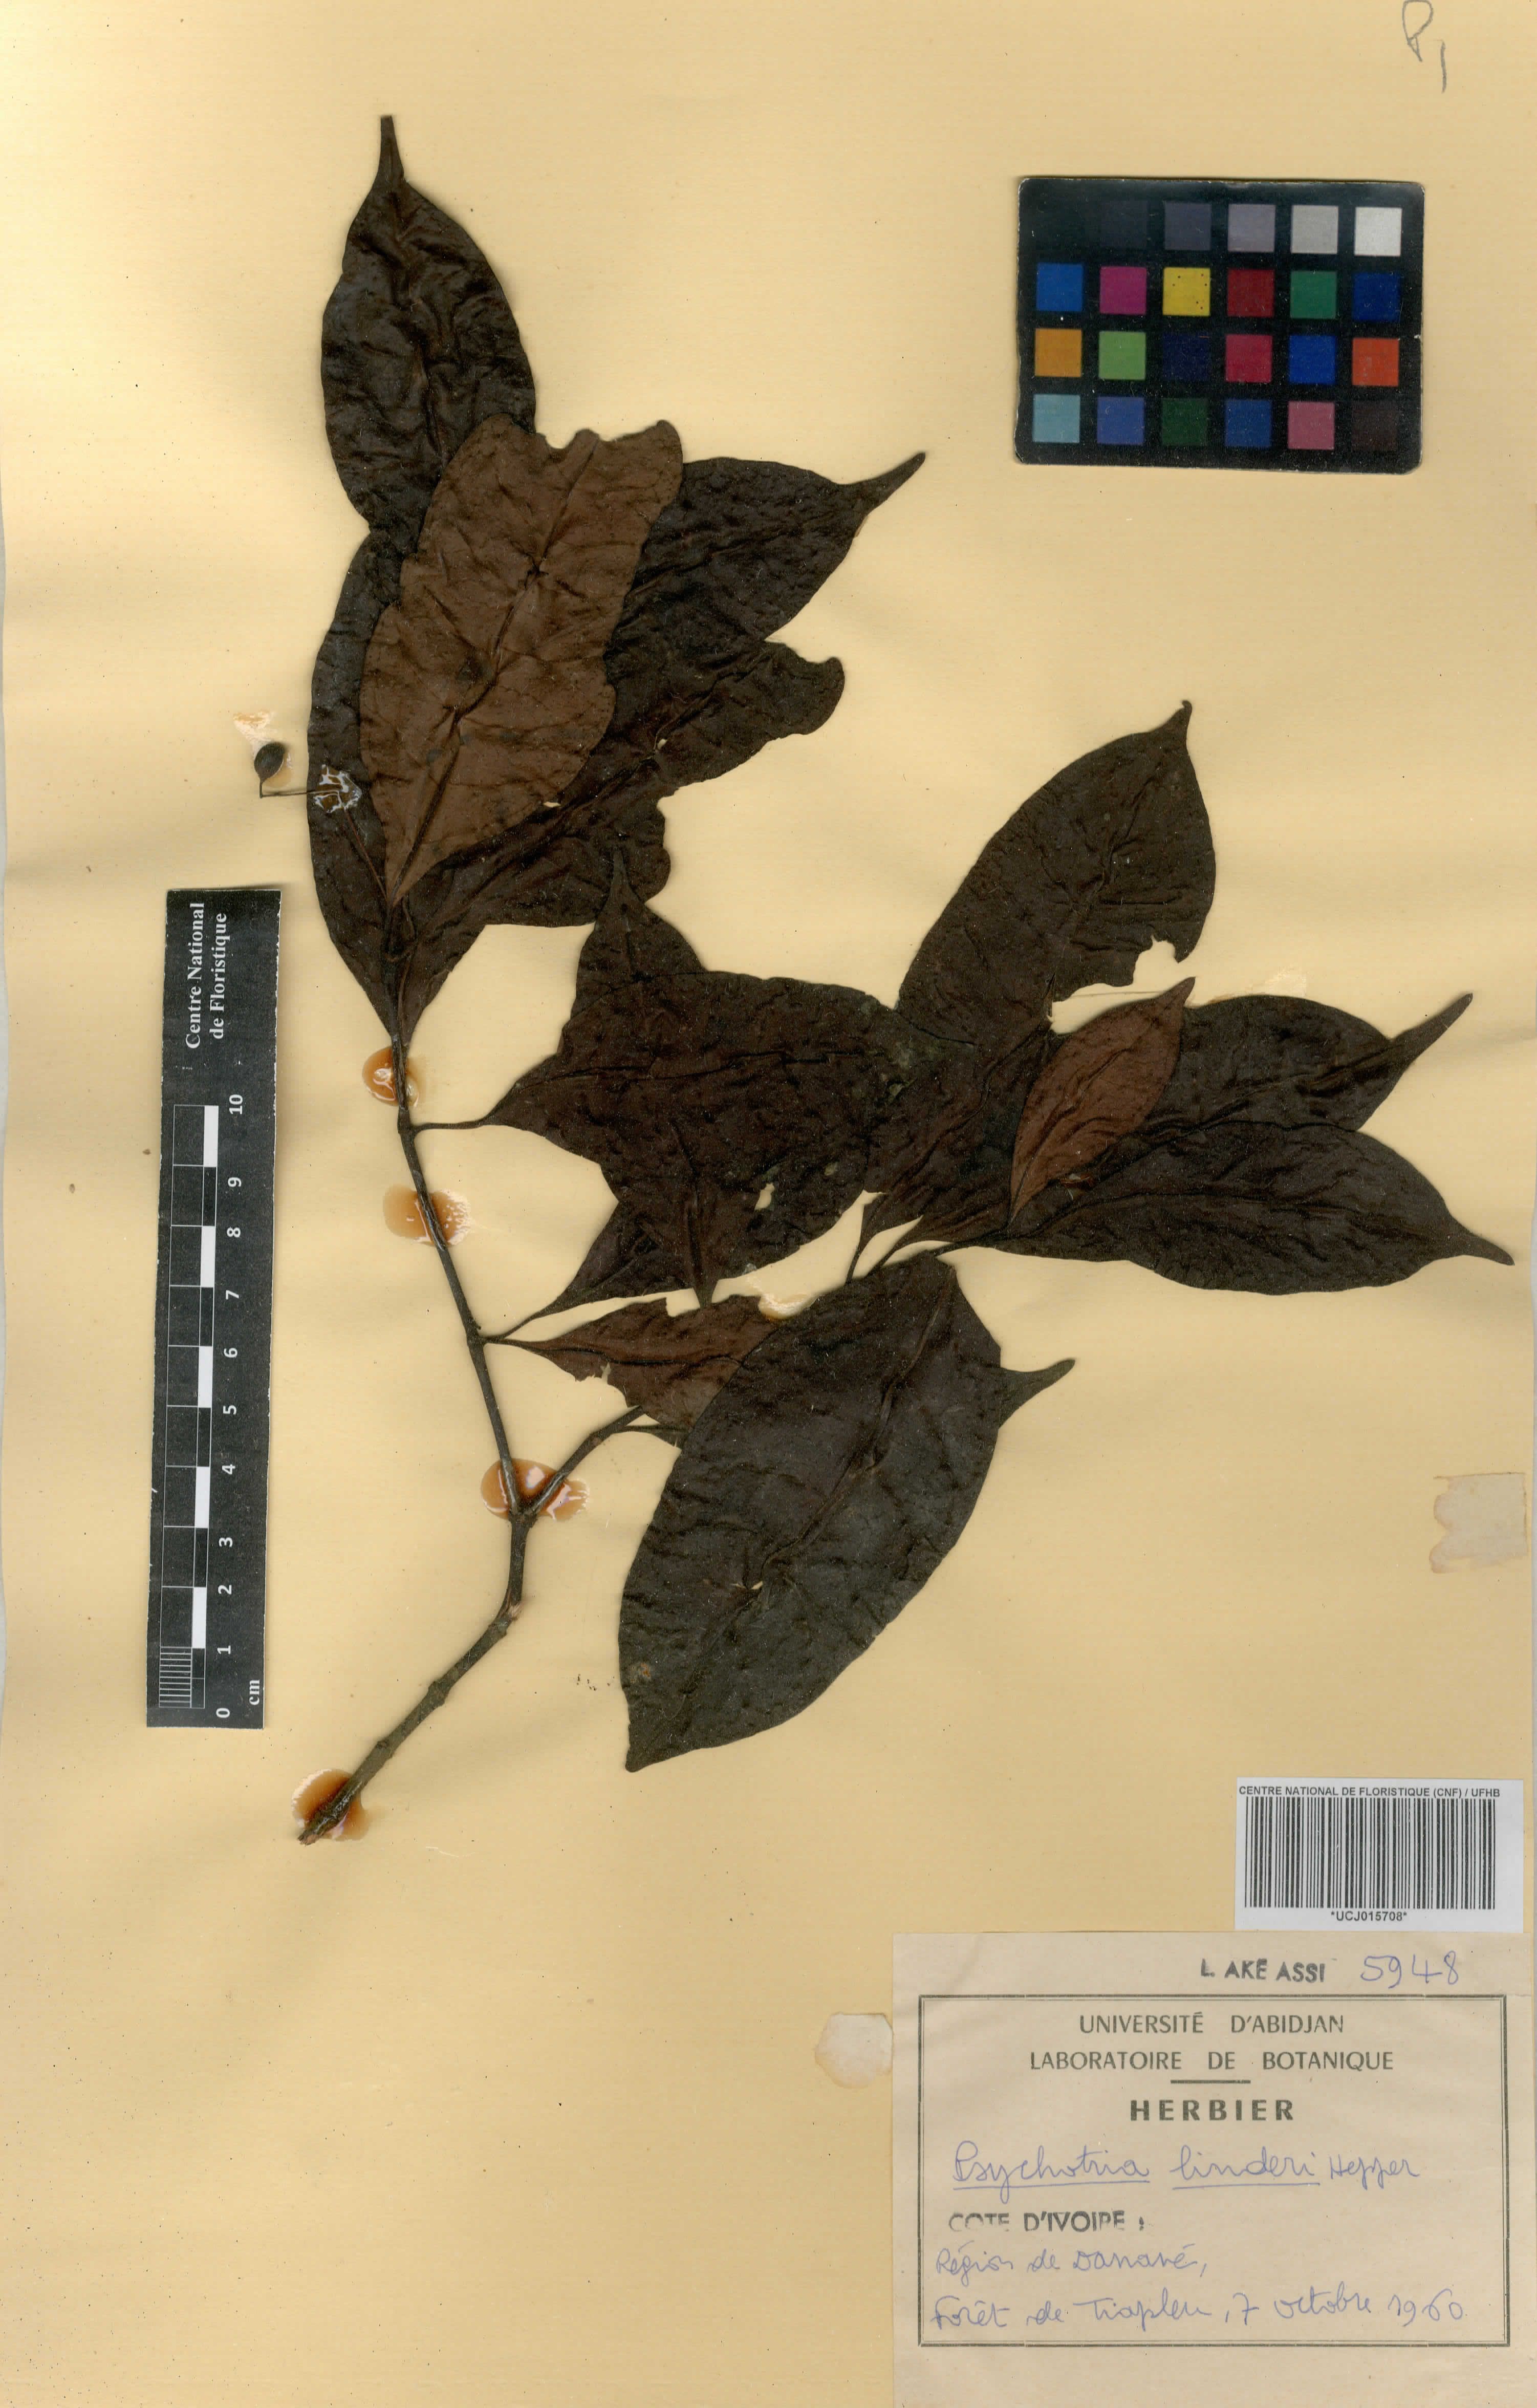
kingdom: Plantae
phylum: Tracheophyta
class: Magnoliopsida
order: Gentianales
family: Rubiaceae
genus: Psychotria
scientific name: Psychotria linderi
